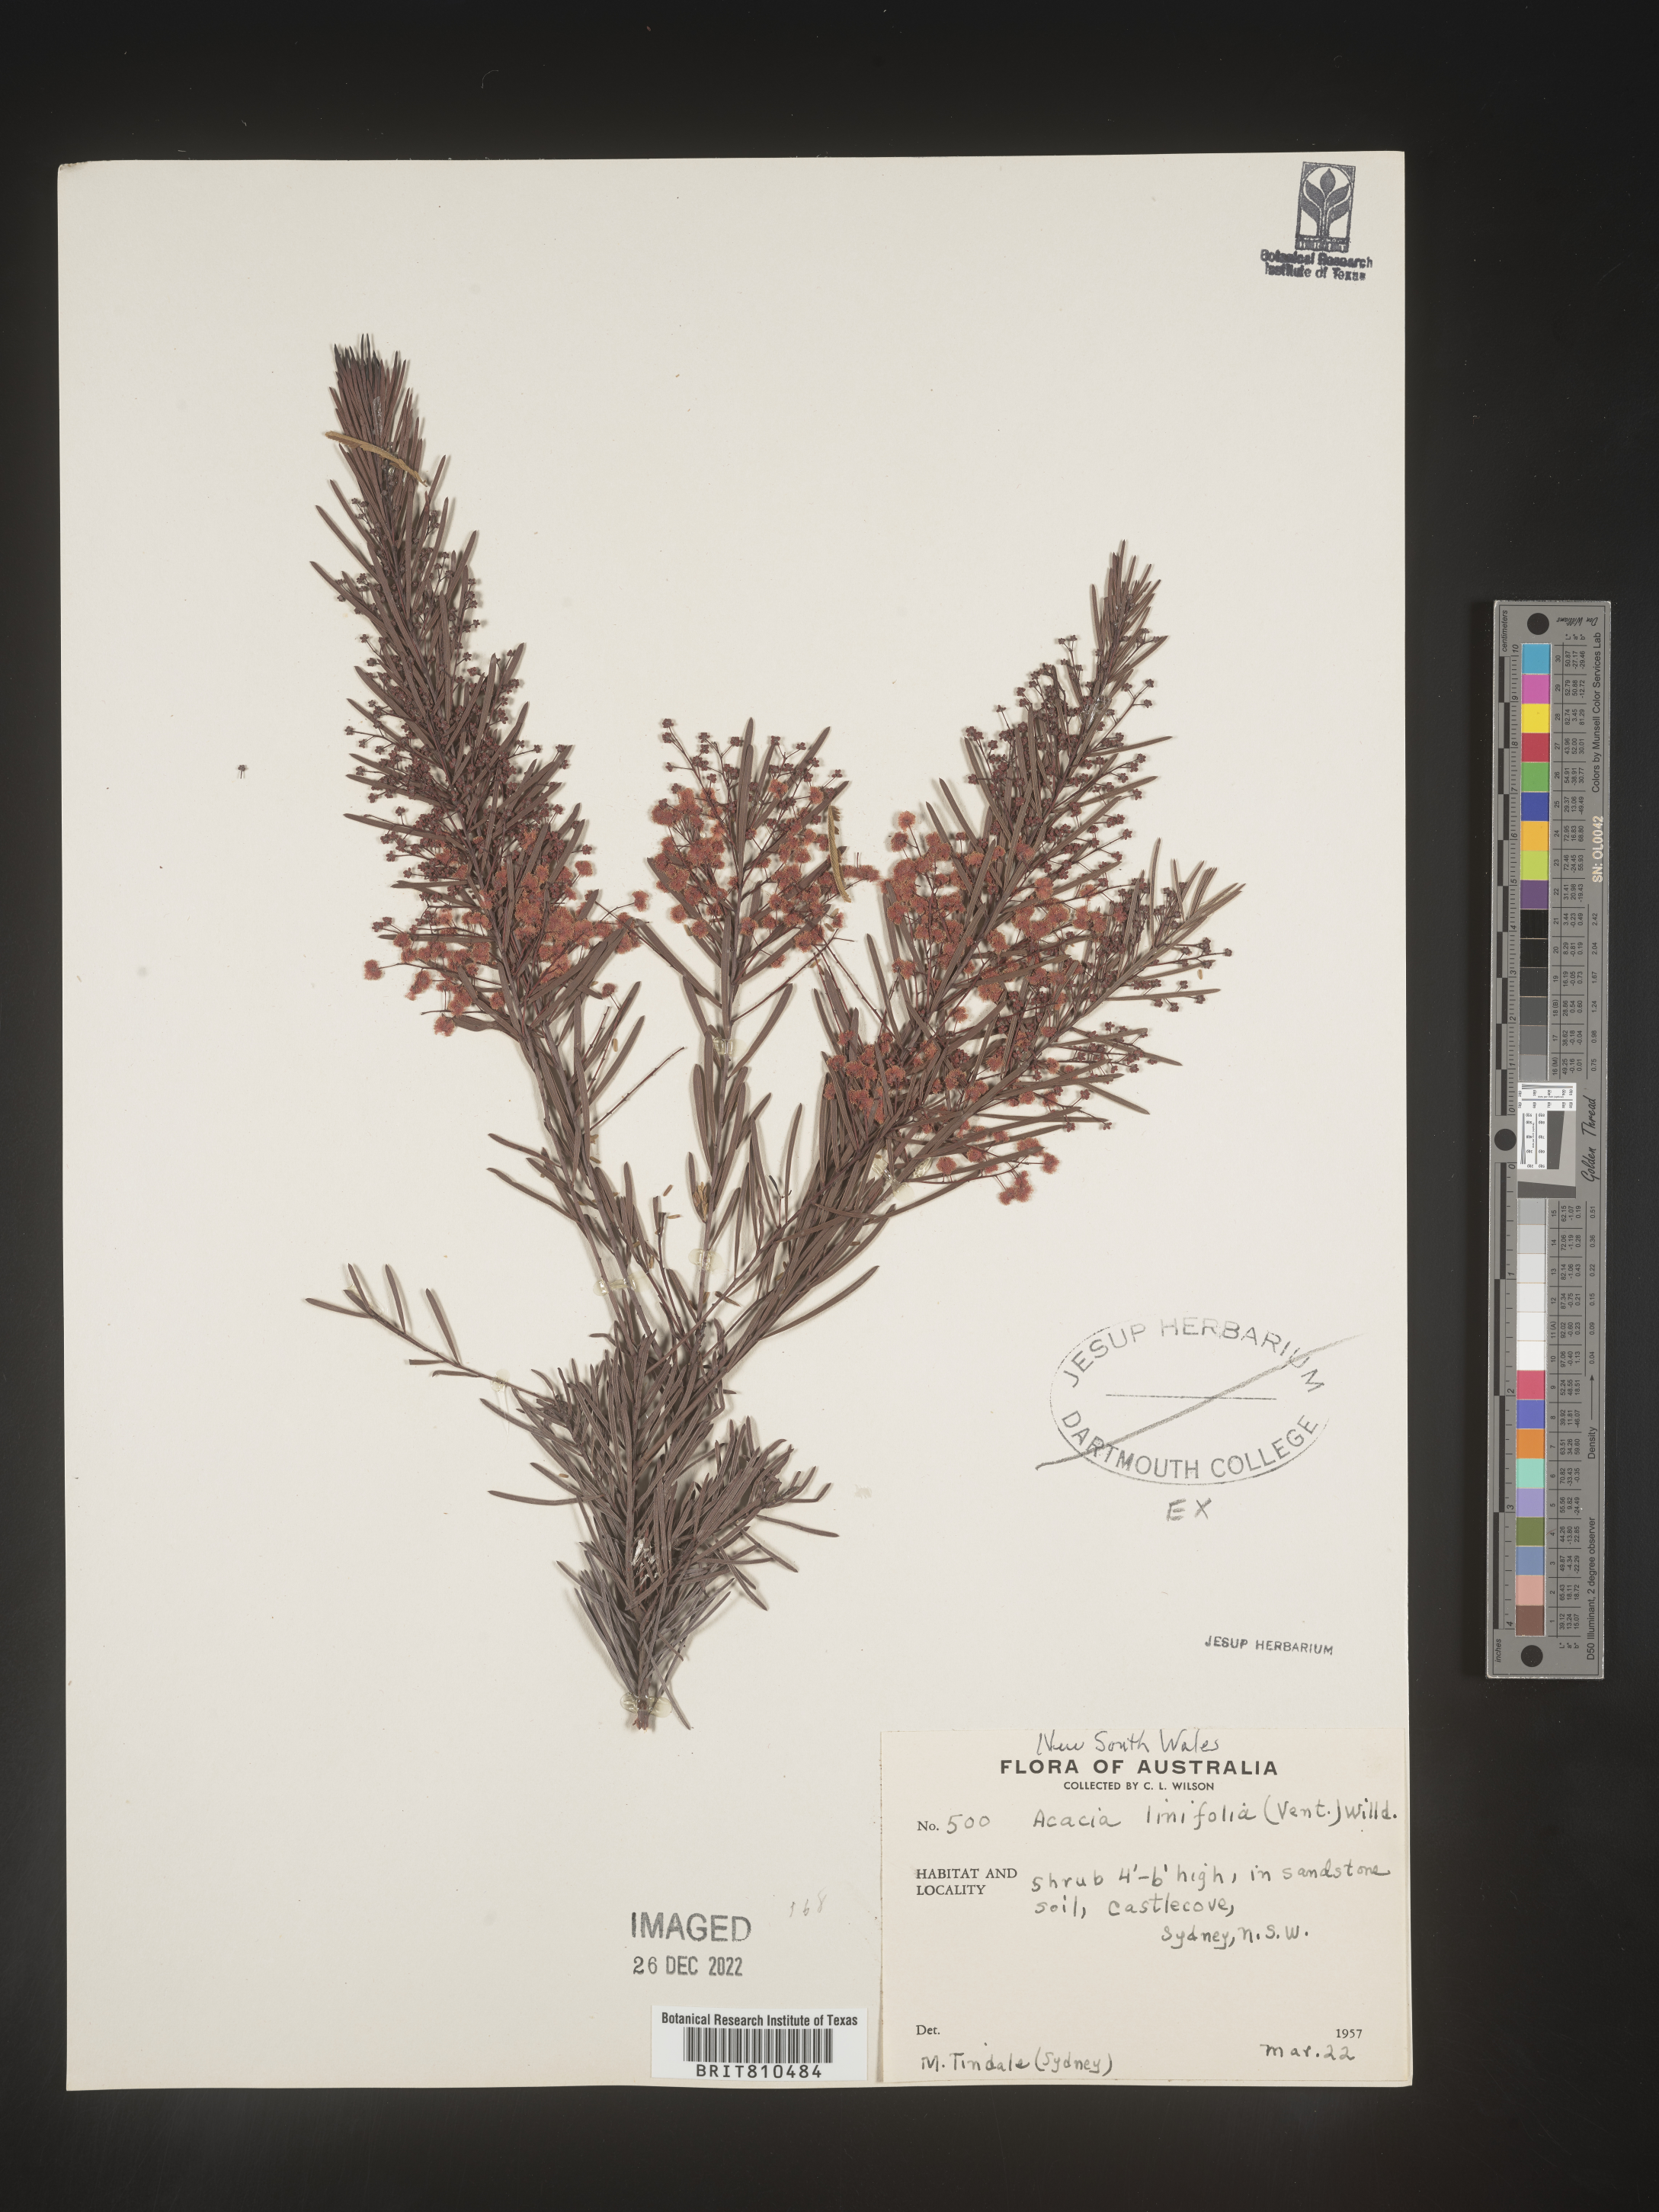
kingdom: Plantae
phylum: Tracheophyta
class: Magnoliopsida
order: Fabales
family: Fabaceae
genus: Acacia
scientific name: Acacia
